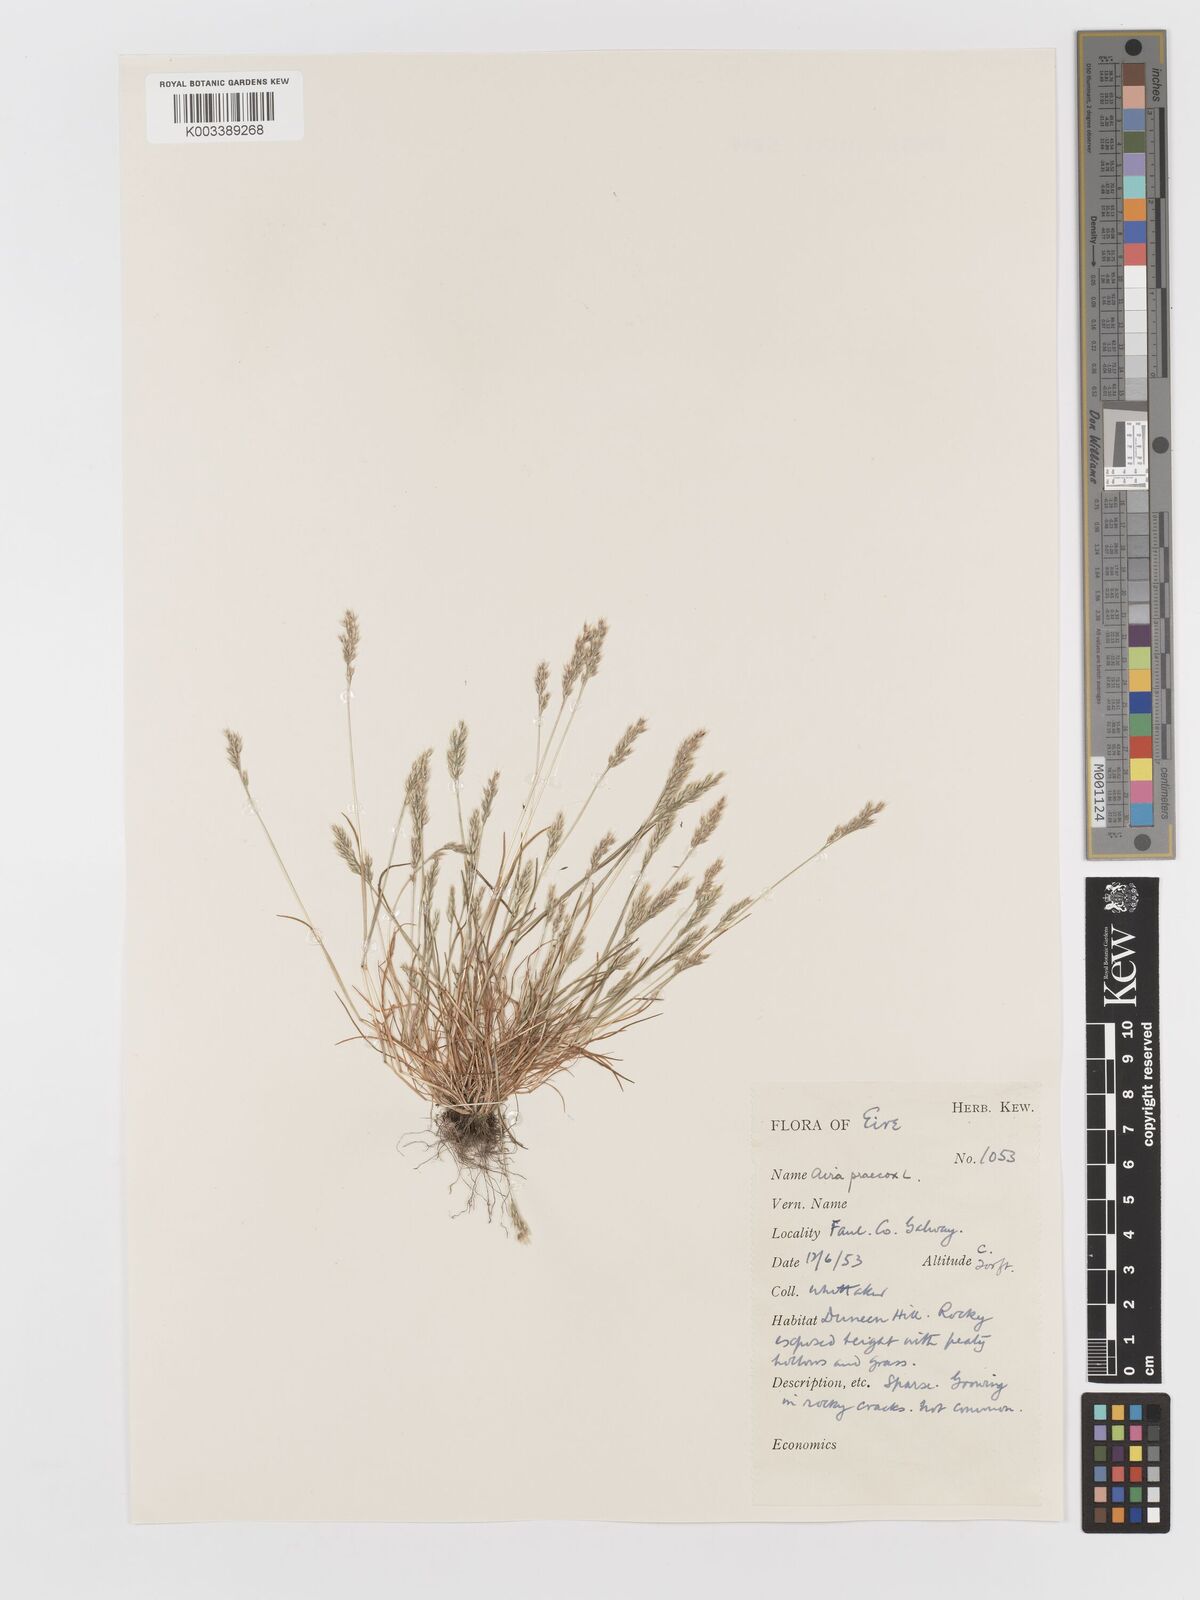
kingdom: Plantae
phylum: Tracheophyta
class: Liliopsida
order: Poales
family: Poaceae
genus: Aira
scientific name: Aira praecox
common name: Early hair-grass
